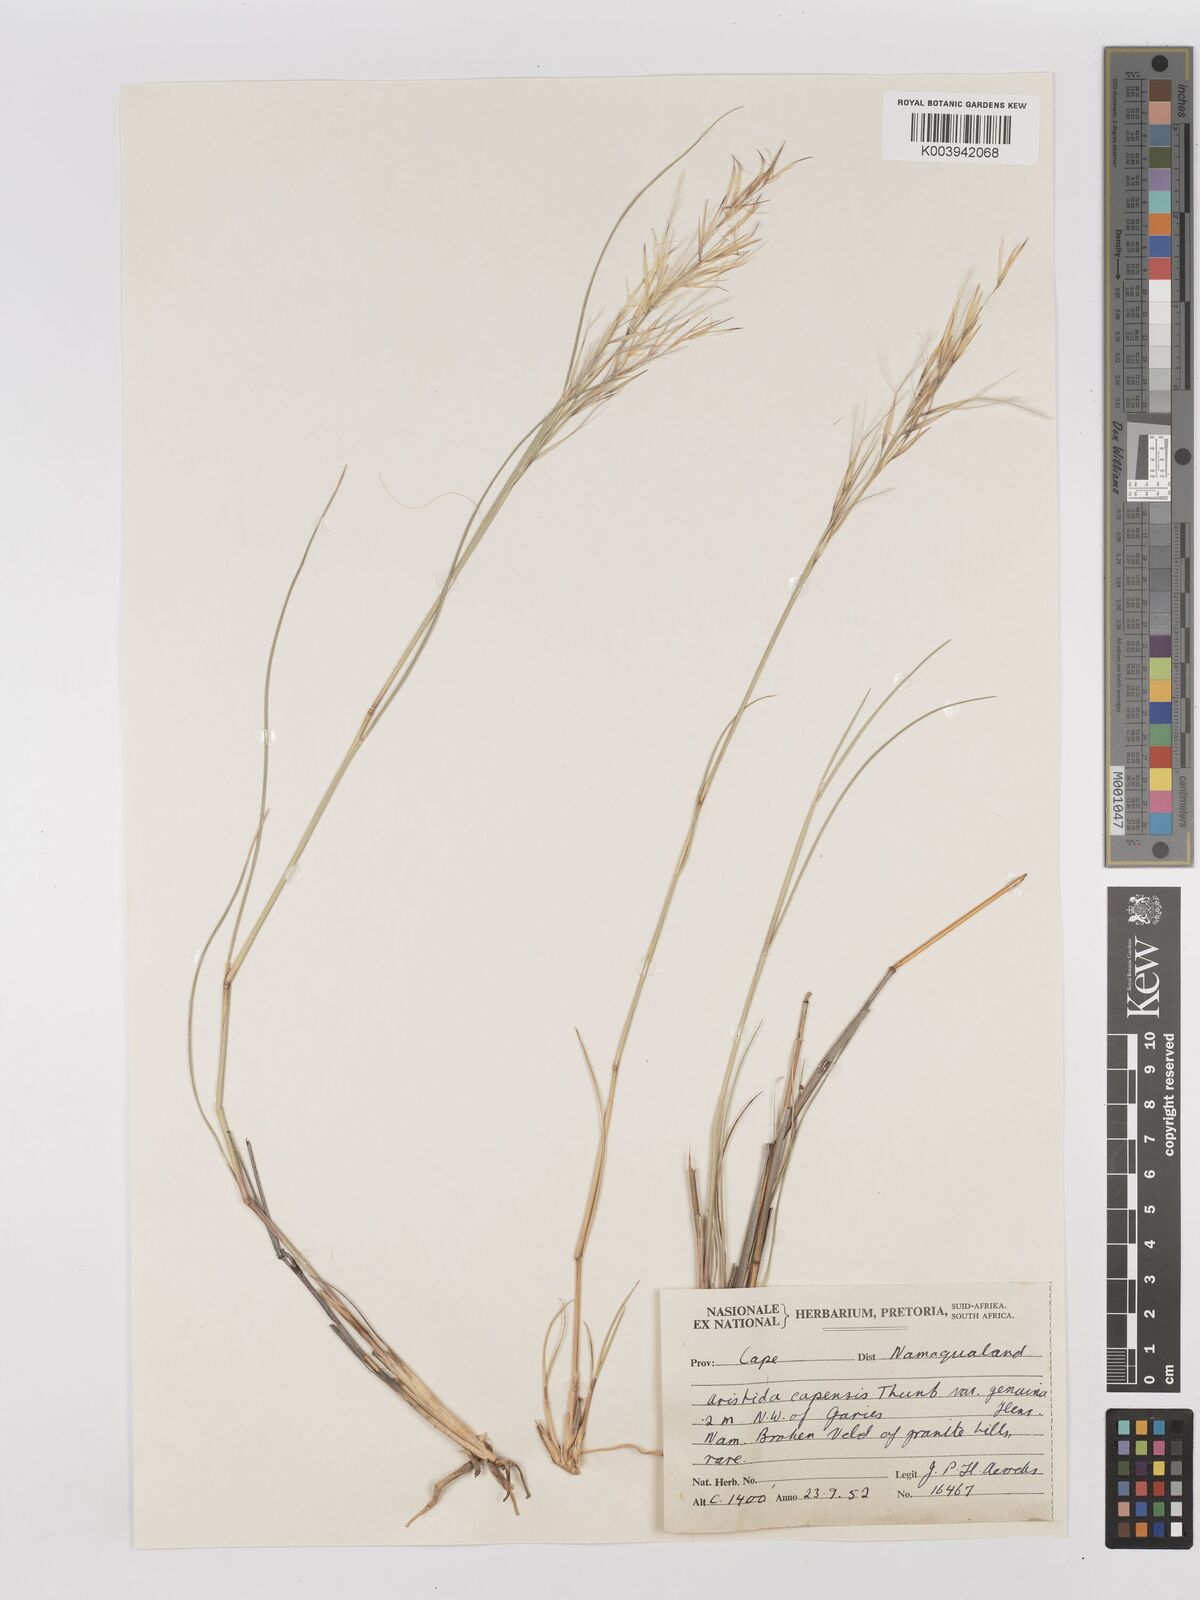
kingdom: Plantae
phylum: Tracheophyta
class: Liliopsida
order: Poales
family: Poaceae
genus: Stipagrostis
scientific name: Stipagrostis zeyheri
